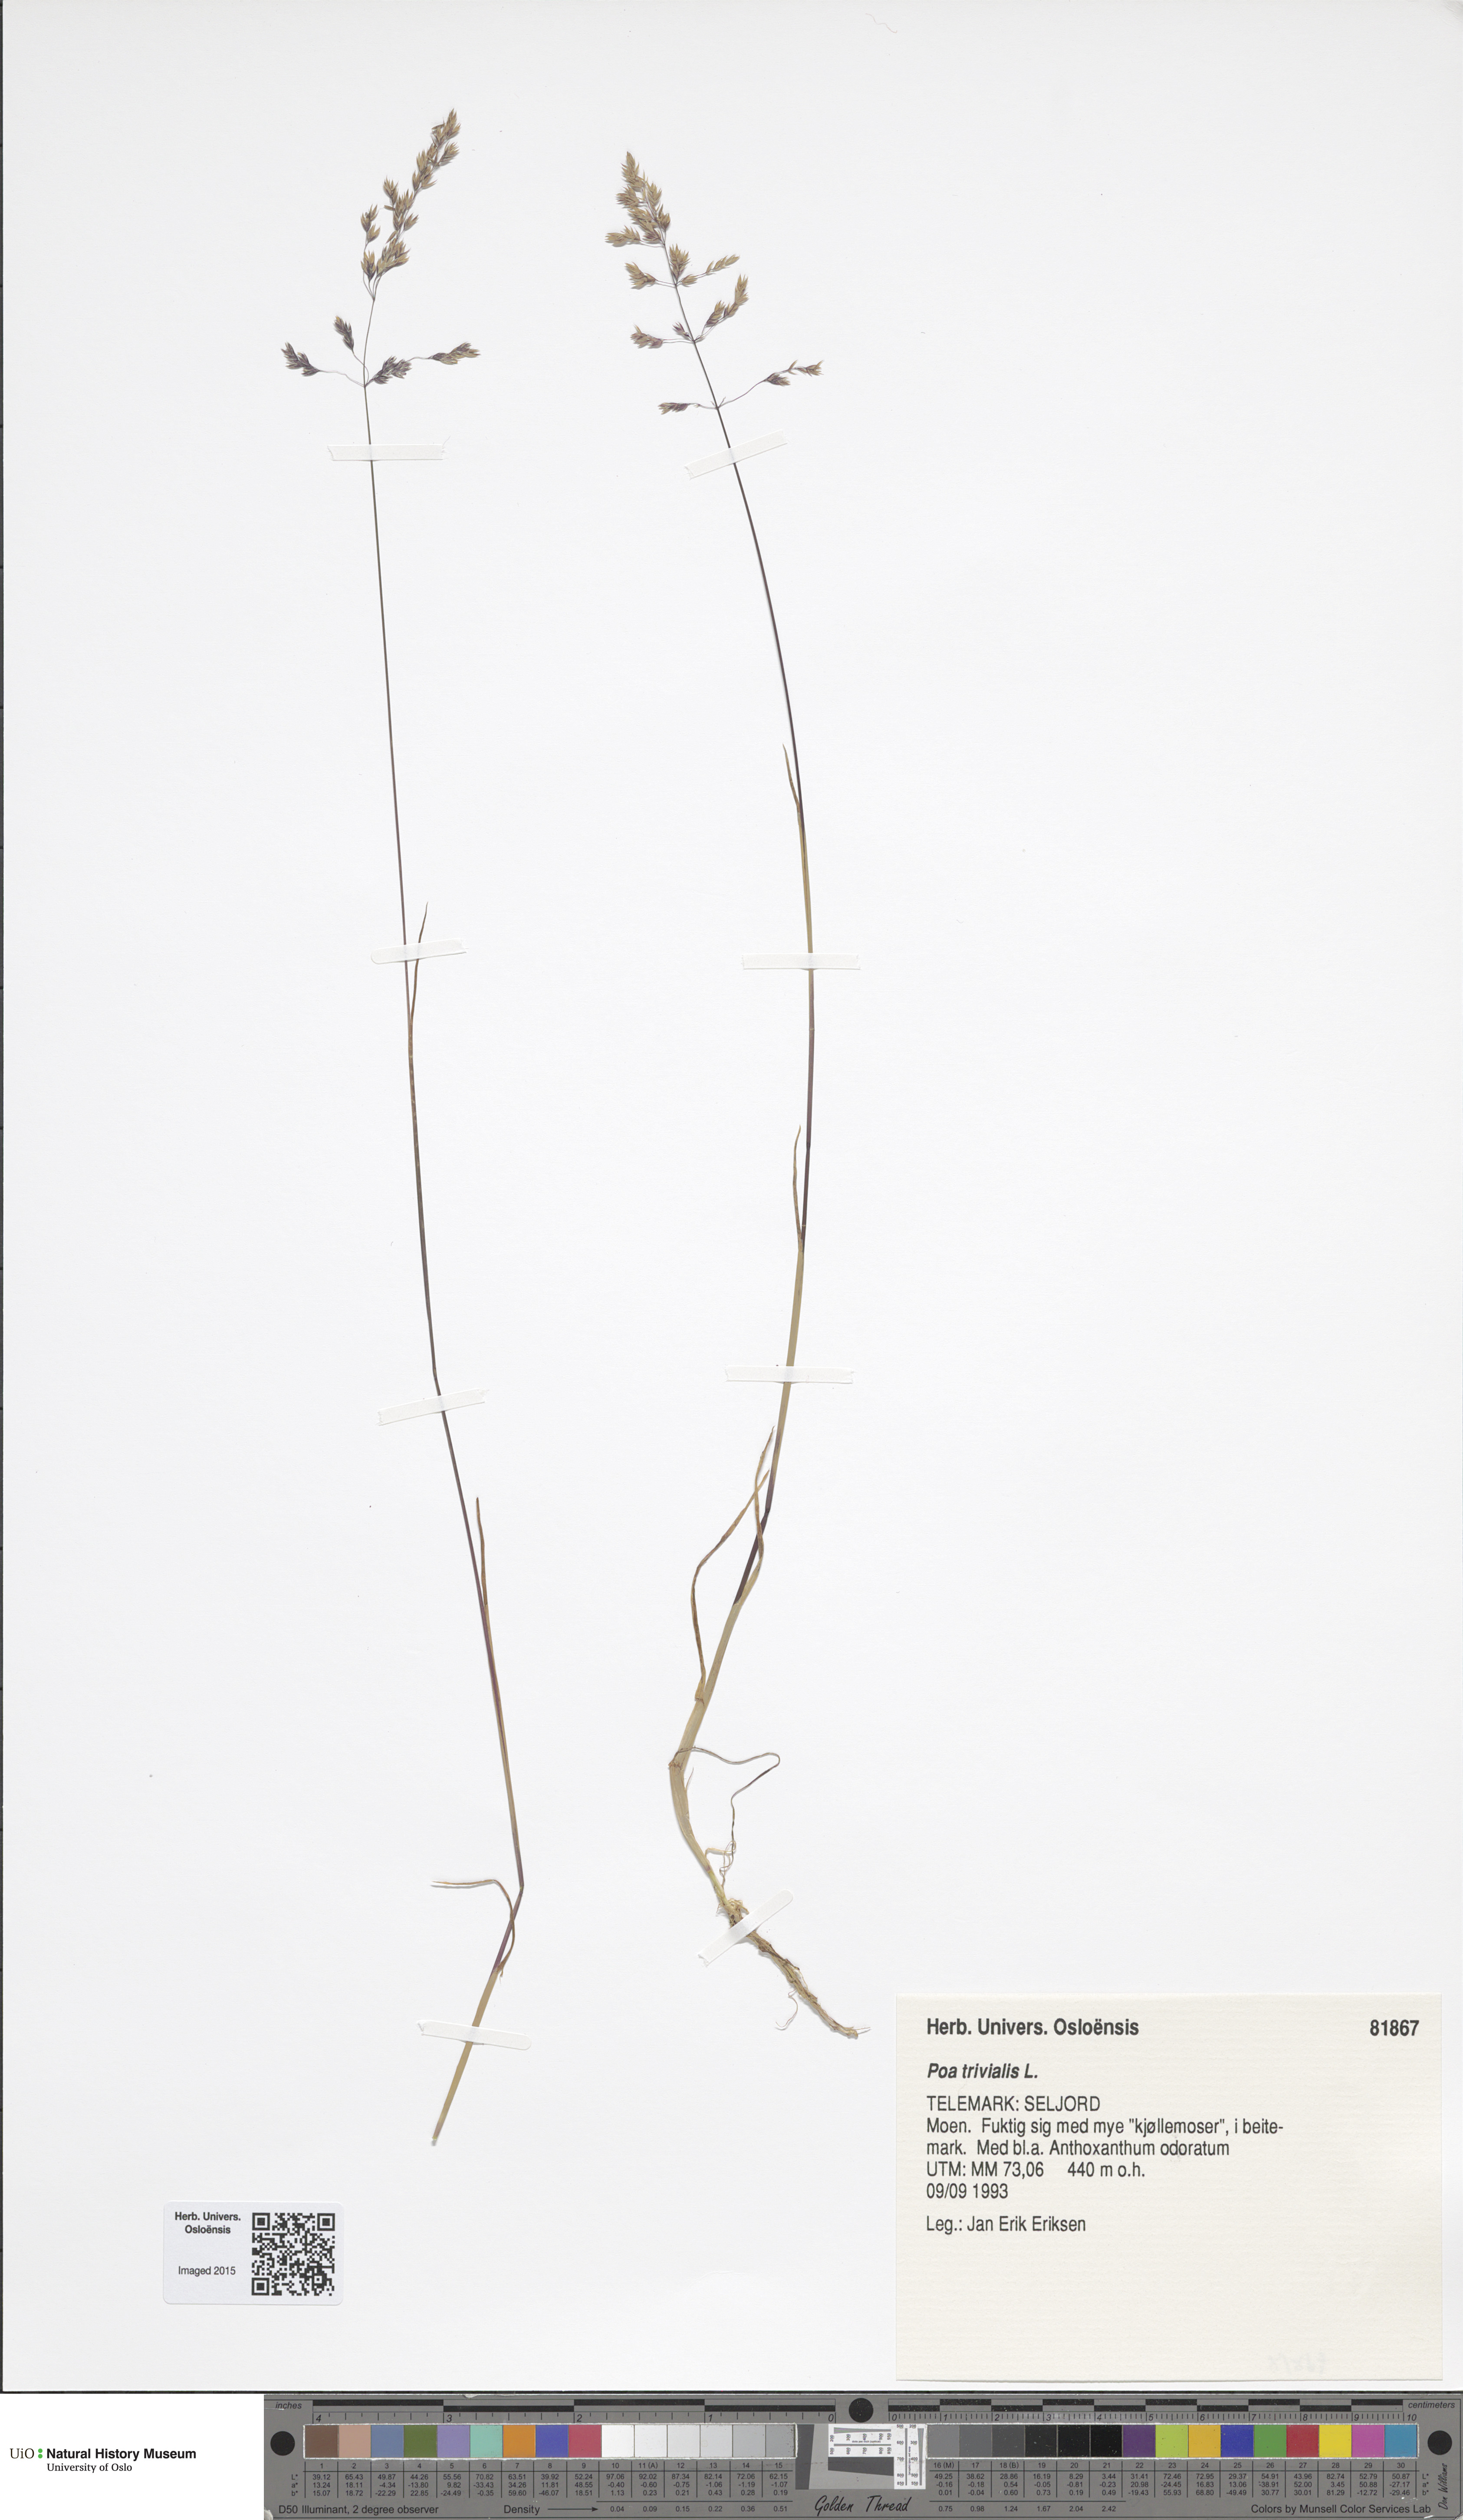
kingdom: Plantae
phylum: Tracheophyta
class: Liliopsida
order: Poales
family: Poaceae
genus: Poa
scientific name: Poa trivialis
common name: Rough bluegrass
